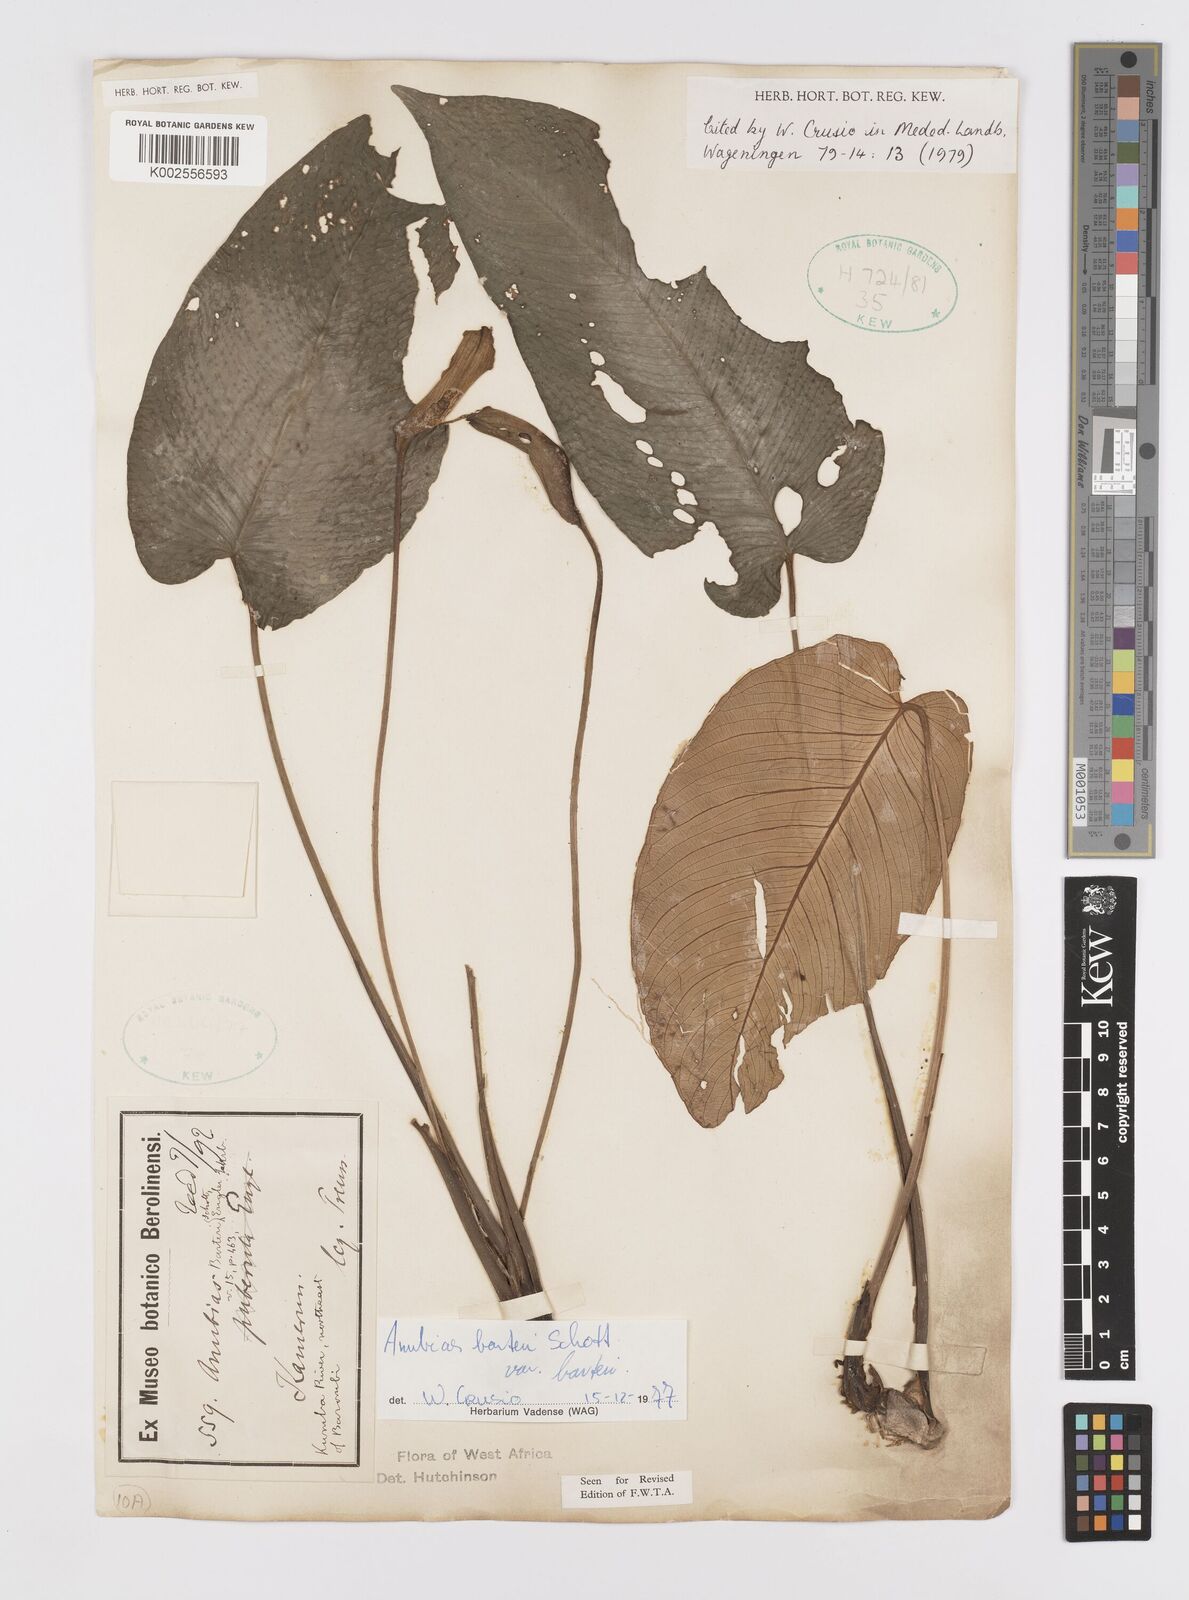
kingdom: Plantae
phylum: Tracheophyta
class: Liliopsida
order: Alismatales
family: Araceae
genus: Anubias
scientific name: Anubias barteri
